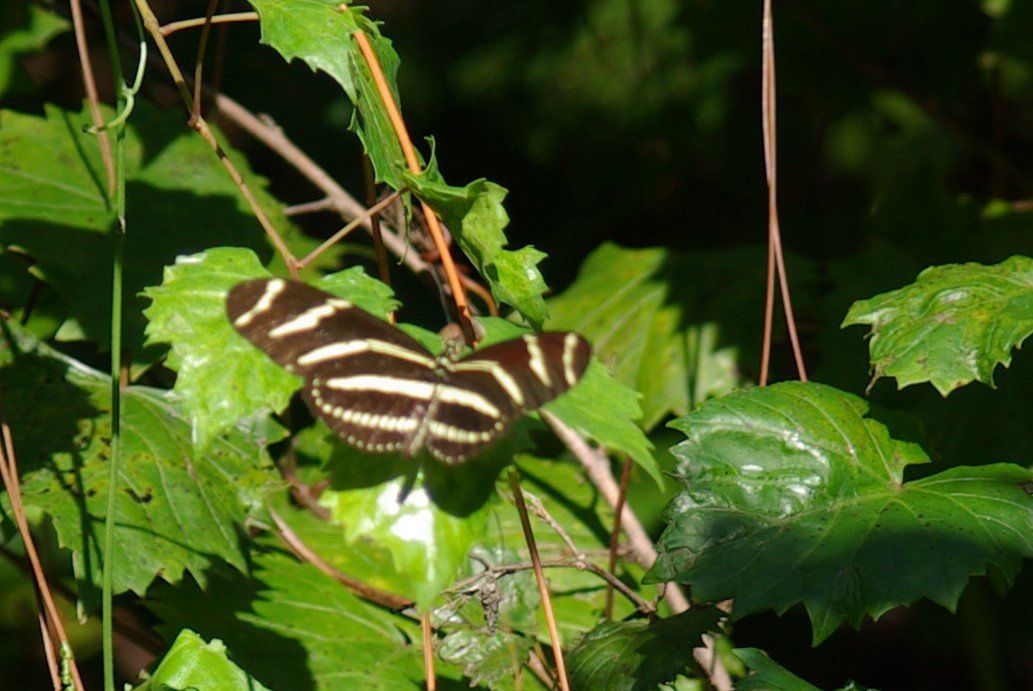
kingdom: Animalia
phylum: Arthropoda
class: Insecta
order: Lepidoptera
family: Nymphalidae
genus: Heliconius
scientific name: Heliconius charithonia
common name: Zebra Longwing
